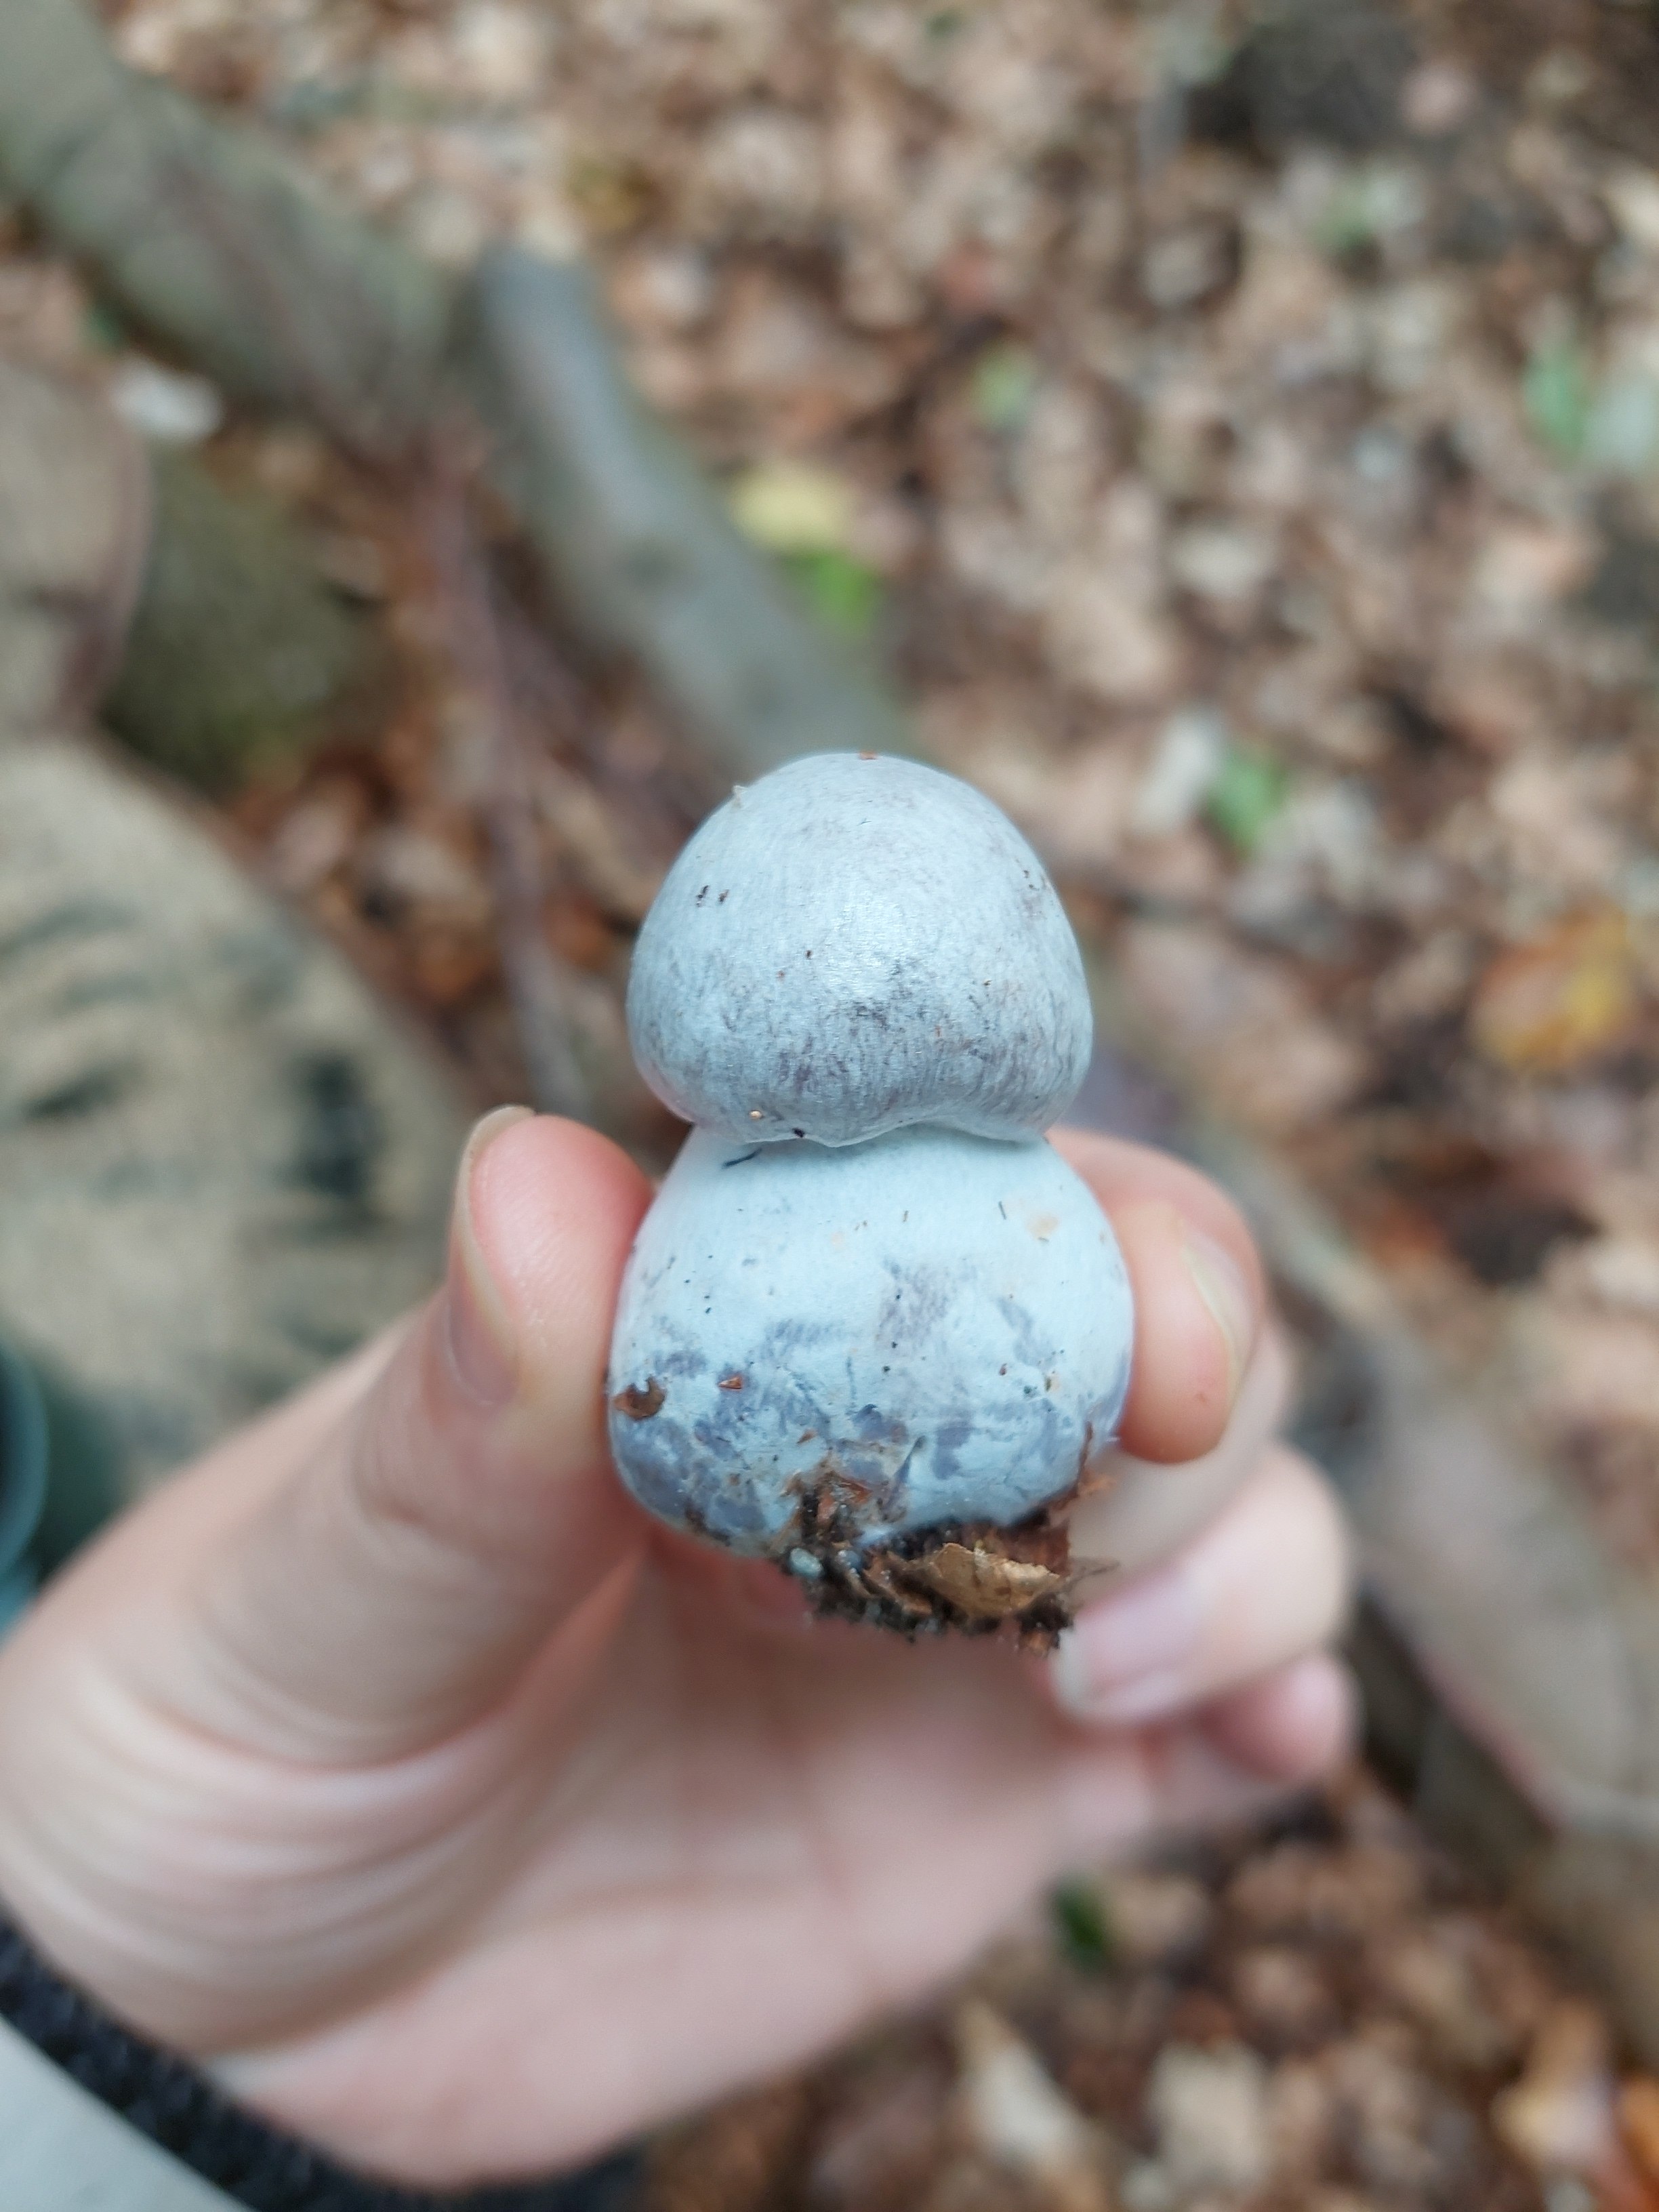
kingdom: Fungi
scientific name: Fungi
